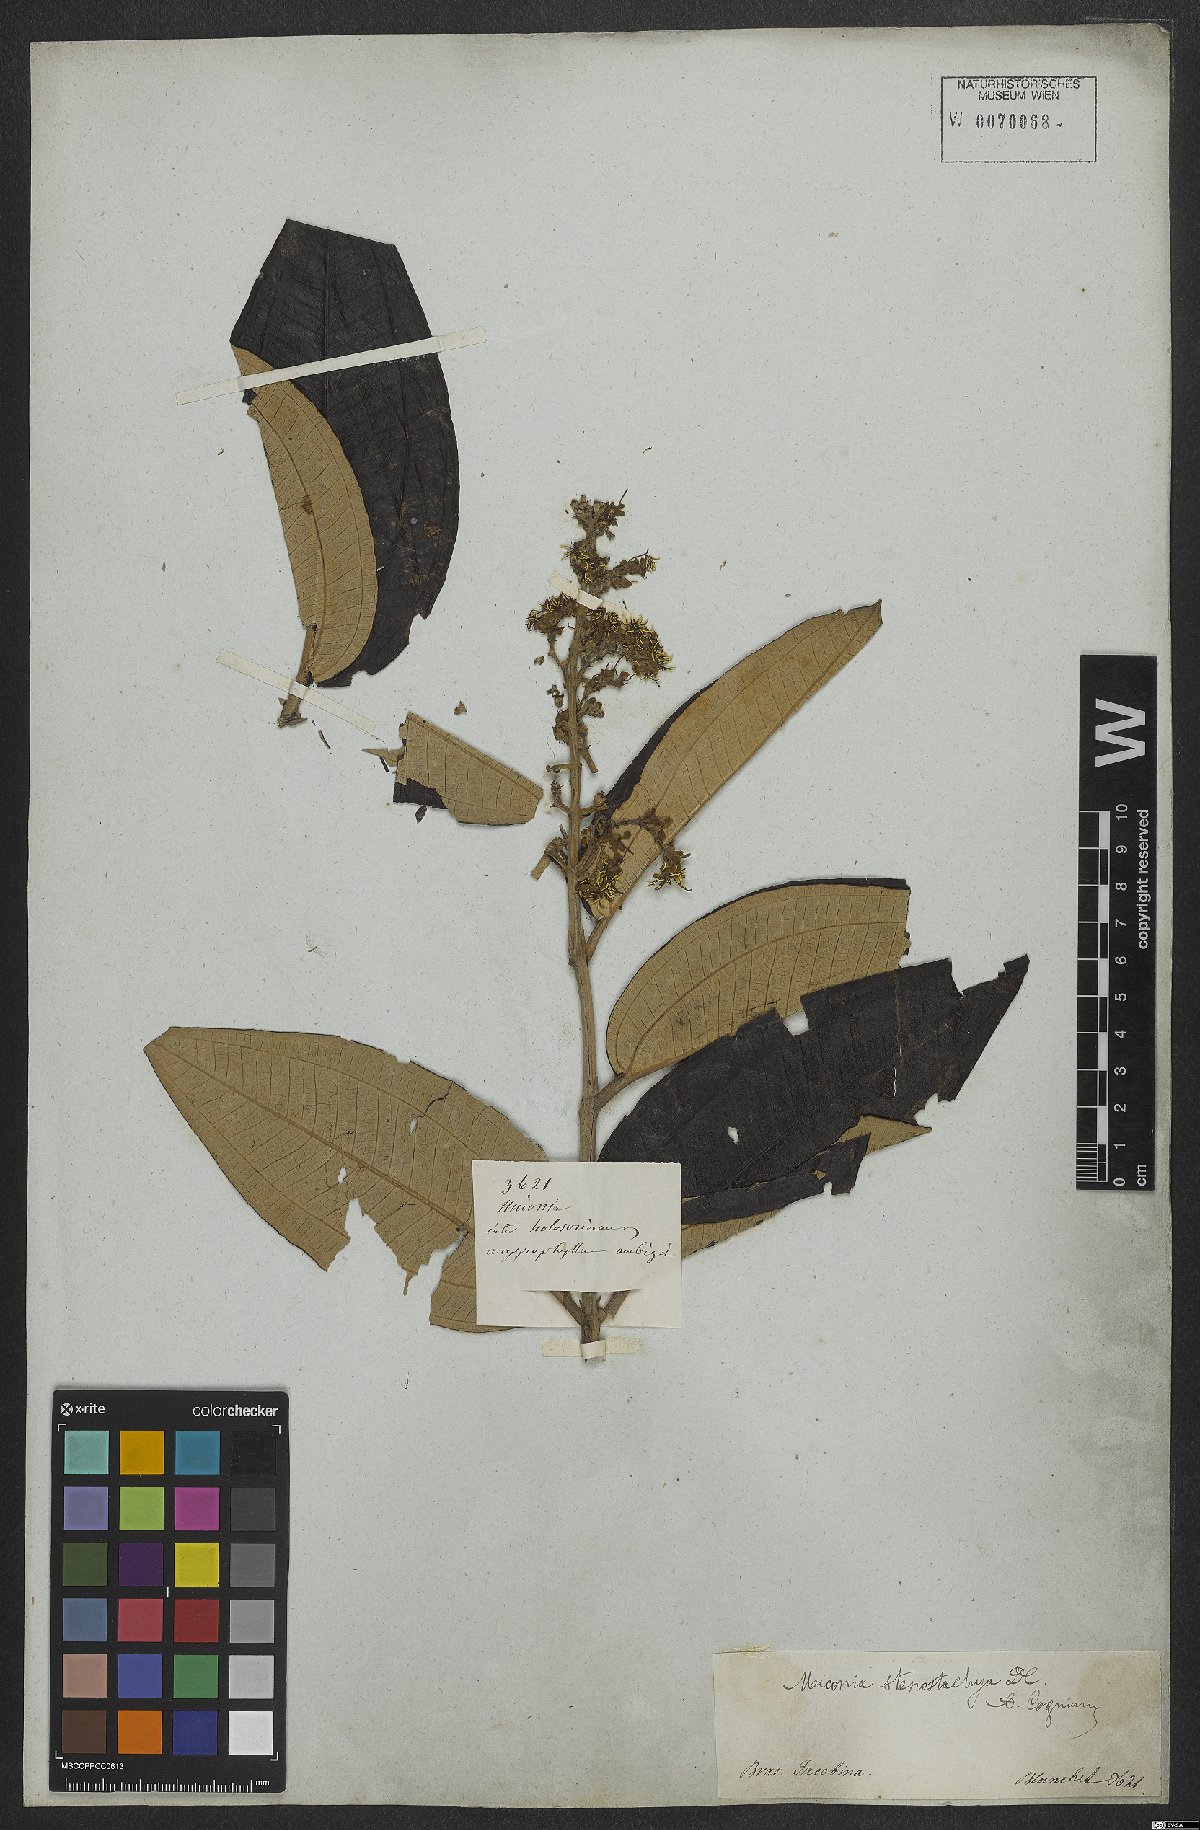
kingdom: Plantae
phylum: Tracheophyta
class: Magnoliopsida
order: Myrtales
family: Melastomataceae
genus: Miconia
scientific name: Miconia stenostachya
